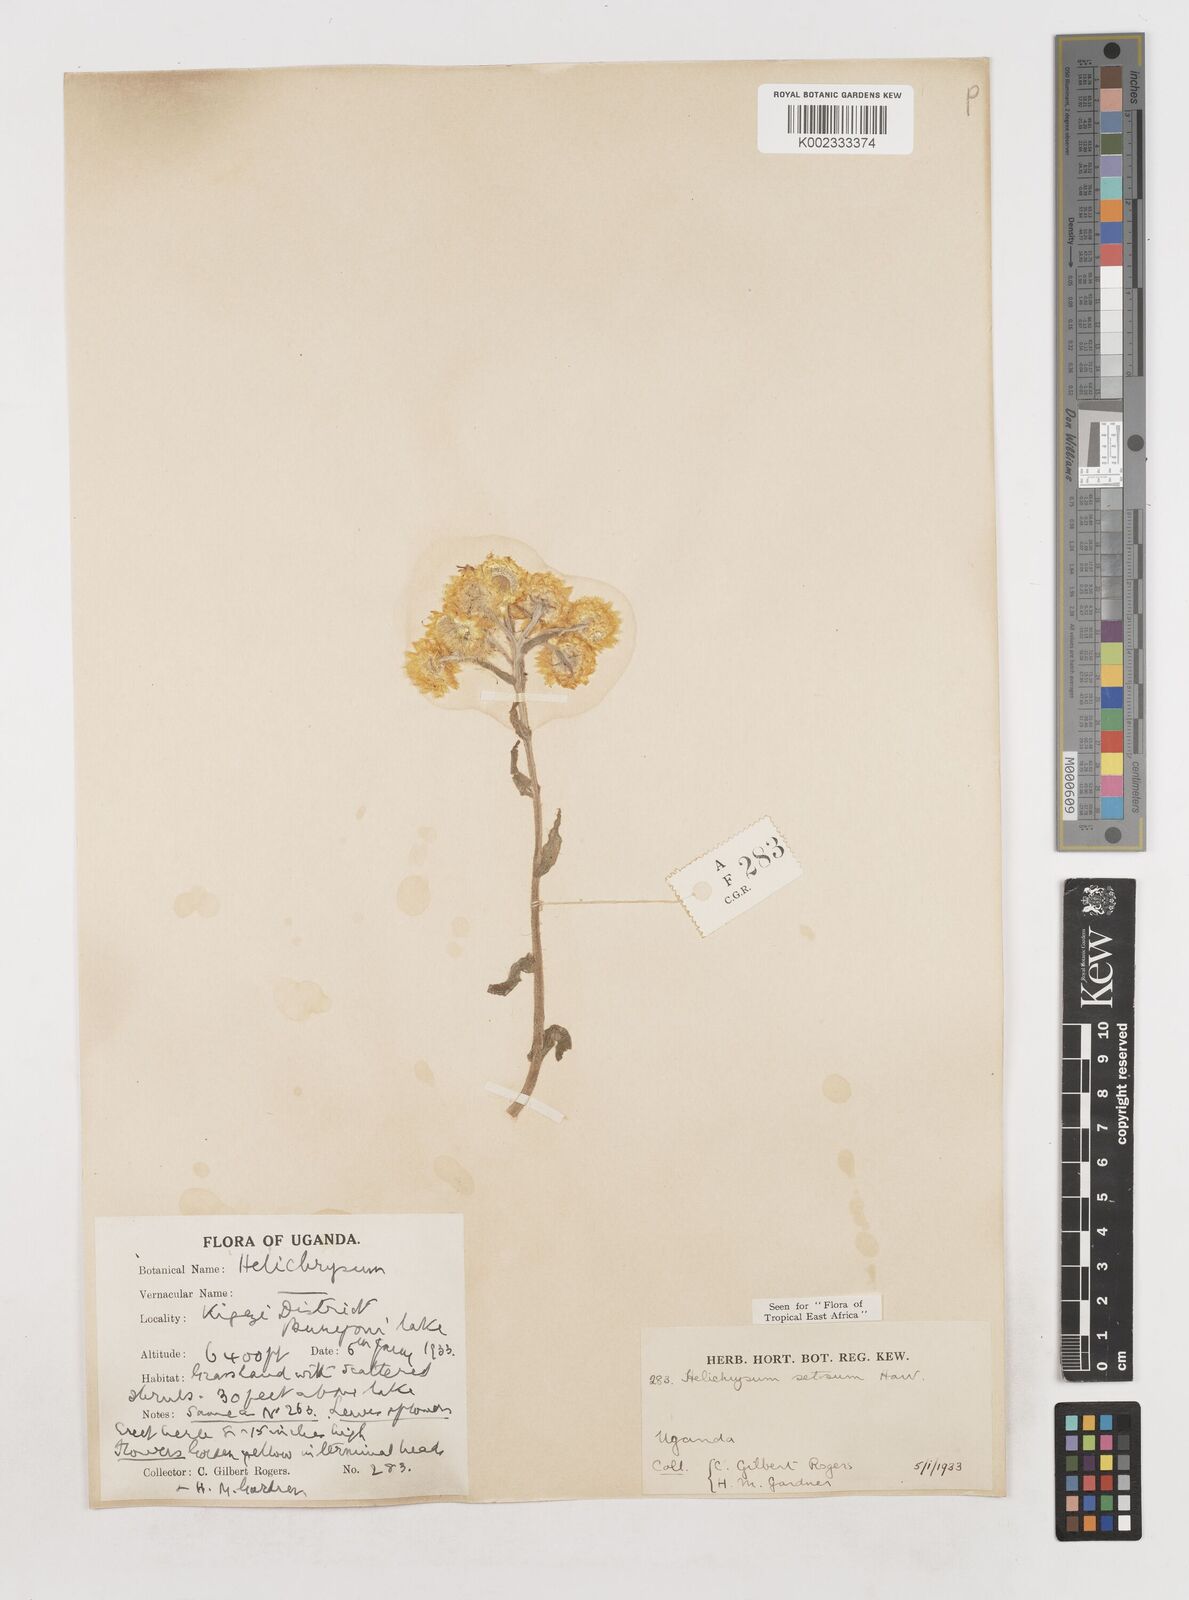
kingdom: Plantae
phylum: Tracheophyta
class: Magnoliopsida
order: Asterales
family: Asteraceae
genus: Helichrysum
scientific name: Helichrysum setosum
